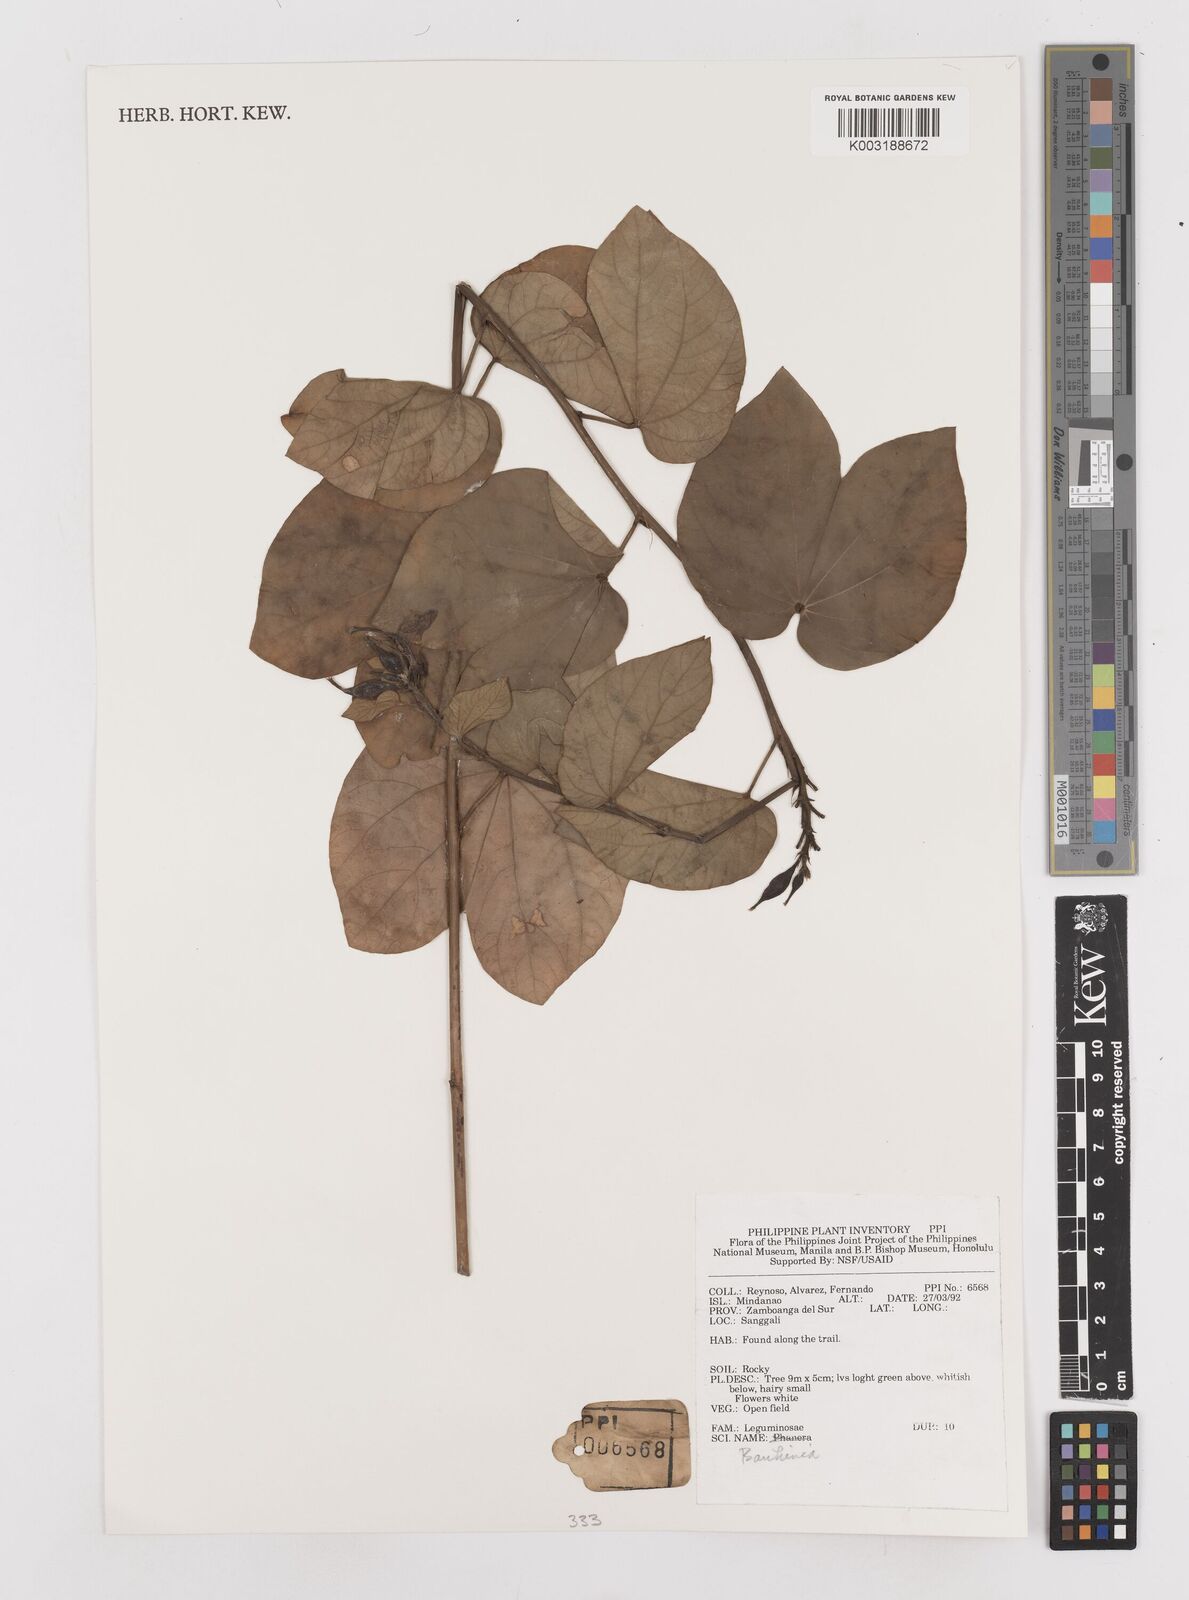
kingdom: Plantae
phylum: Tracheophyta
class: Magnoliopsida
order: Fabales
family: Fabaceae
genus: Bauhinia
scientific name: Bauhinia
